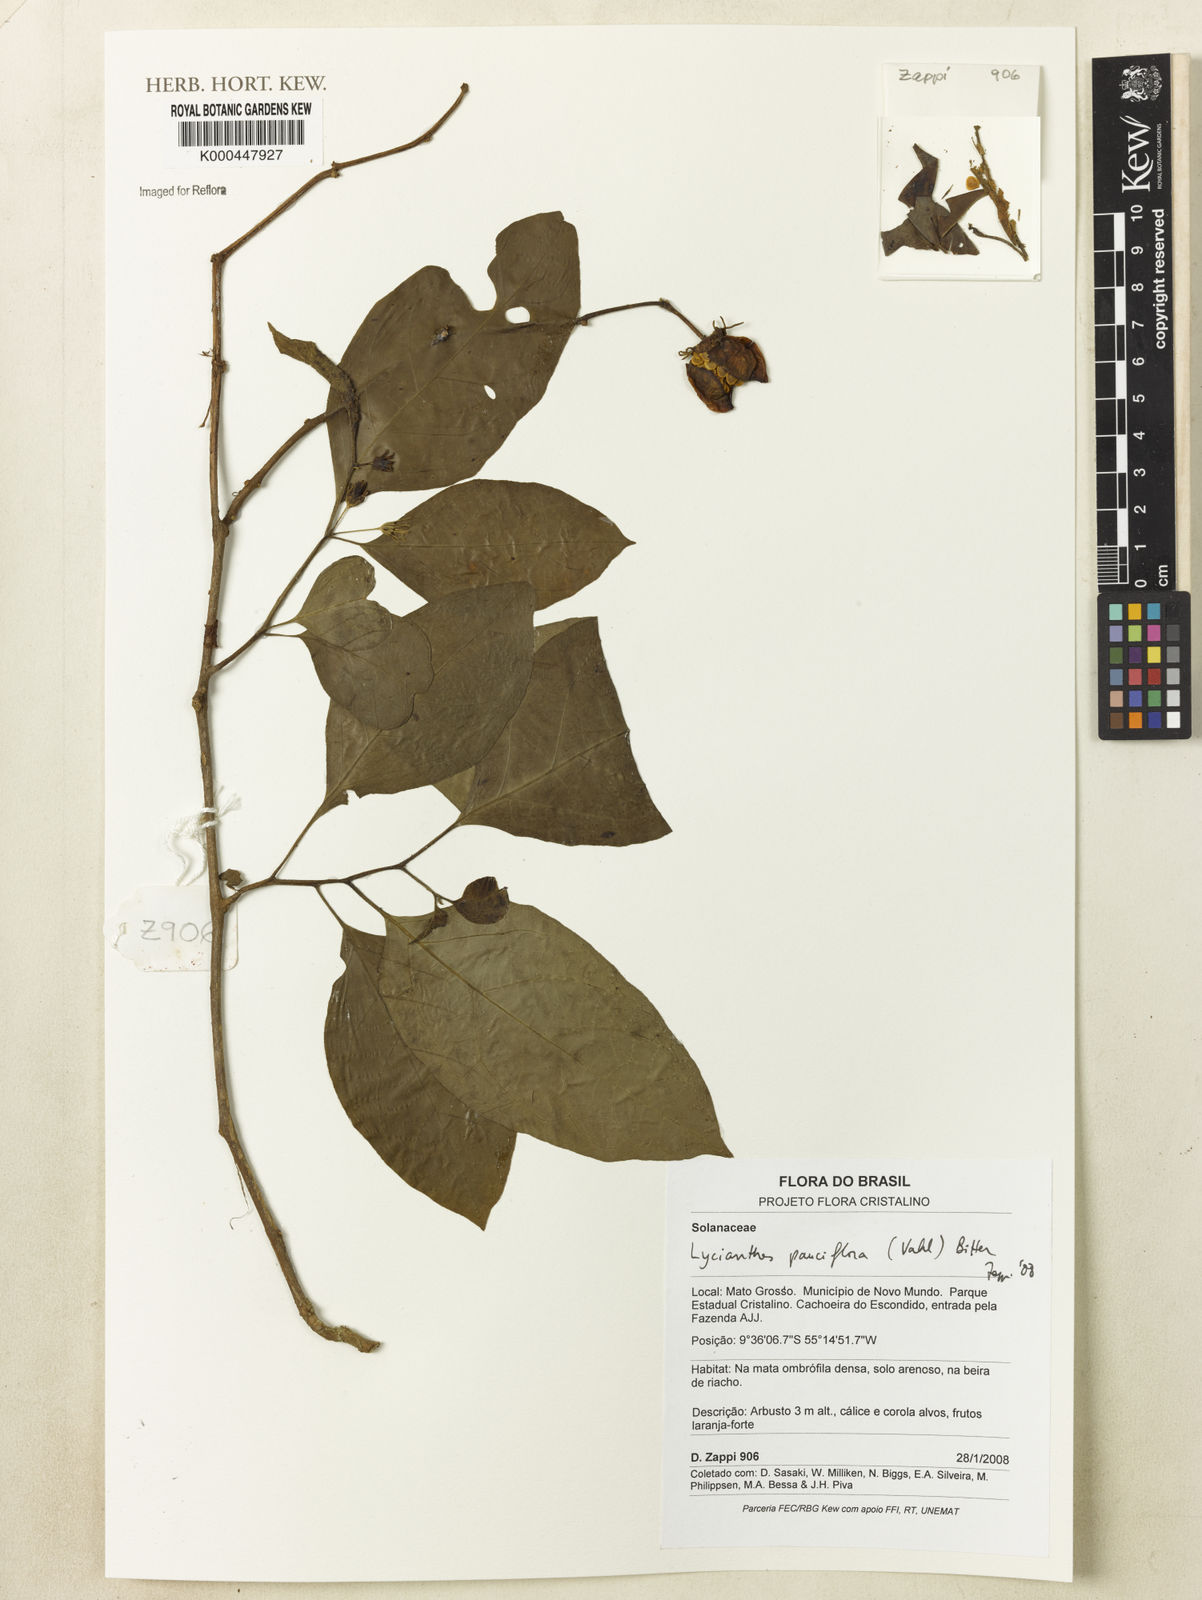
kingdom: Plantae
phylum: Tracheophyta
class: Magnoliopsida
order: Solanales
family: Solanaceae
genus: Lycianthes
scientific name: Lycianthes pauciflora
